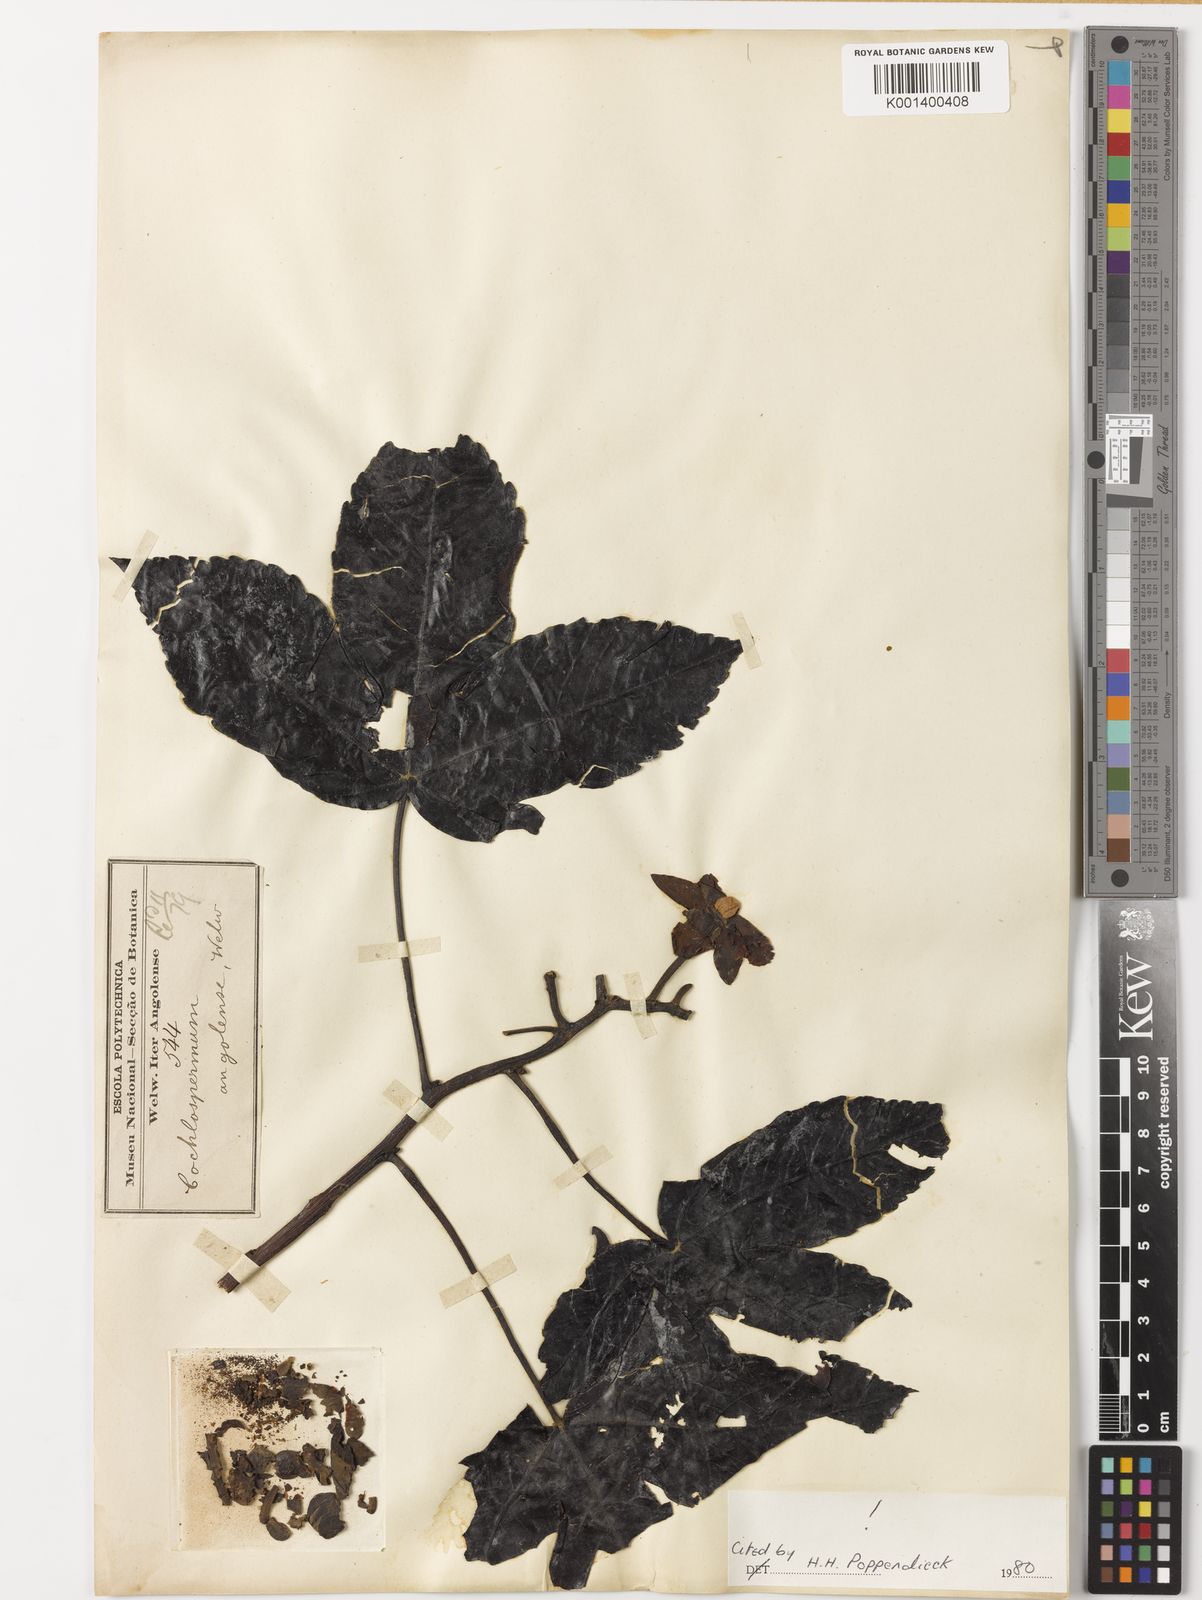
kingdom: Plantae
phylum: Tracheophyta
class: Magnoliopsida
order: Malvales
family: Cochlospermaceae
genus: Cochlospermum
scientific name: Cochlospermum
